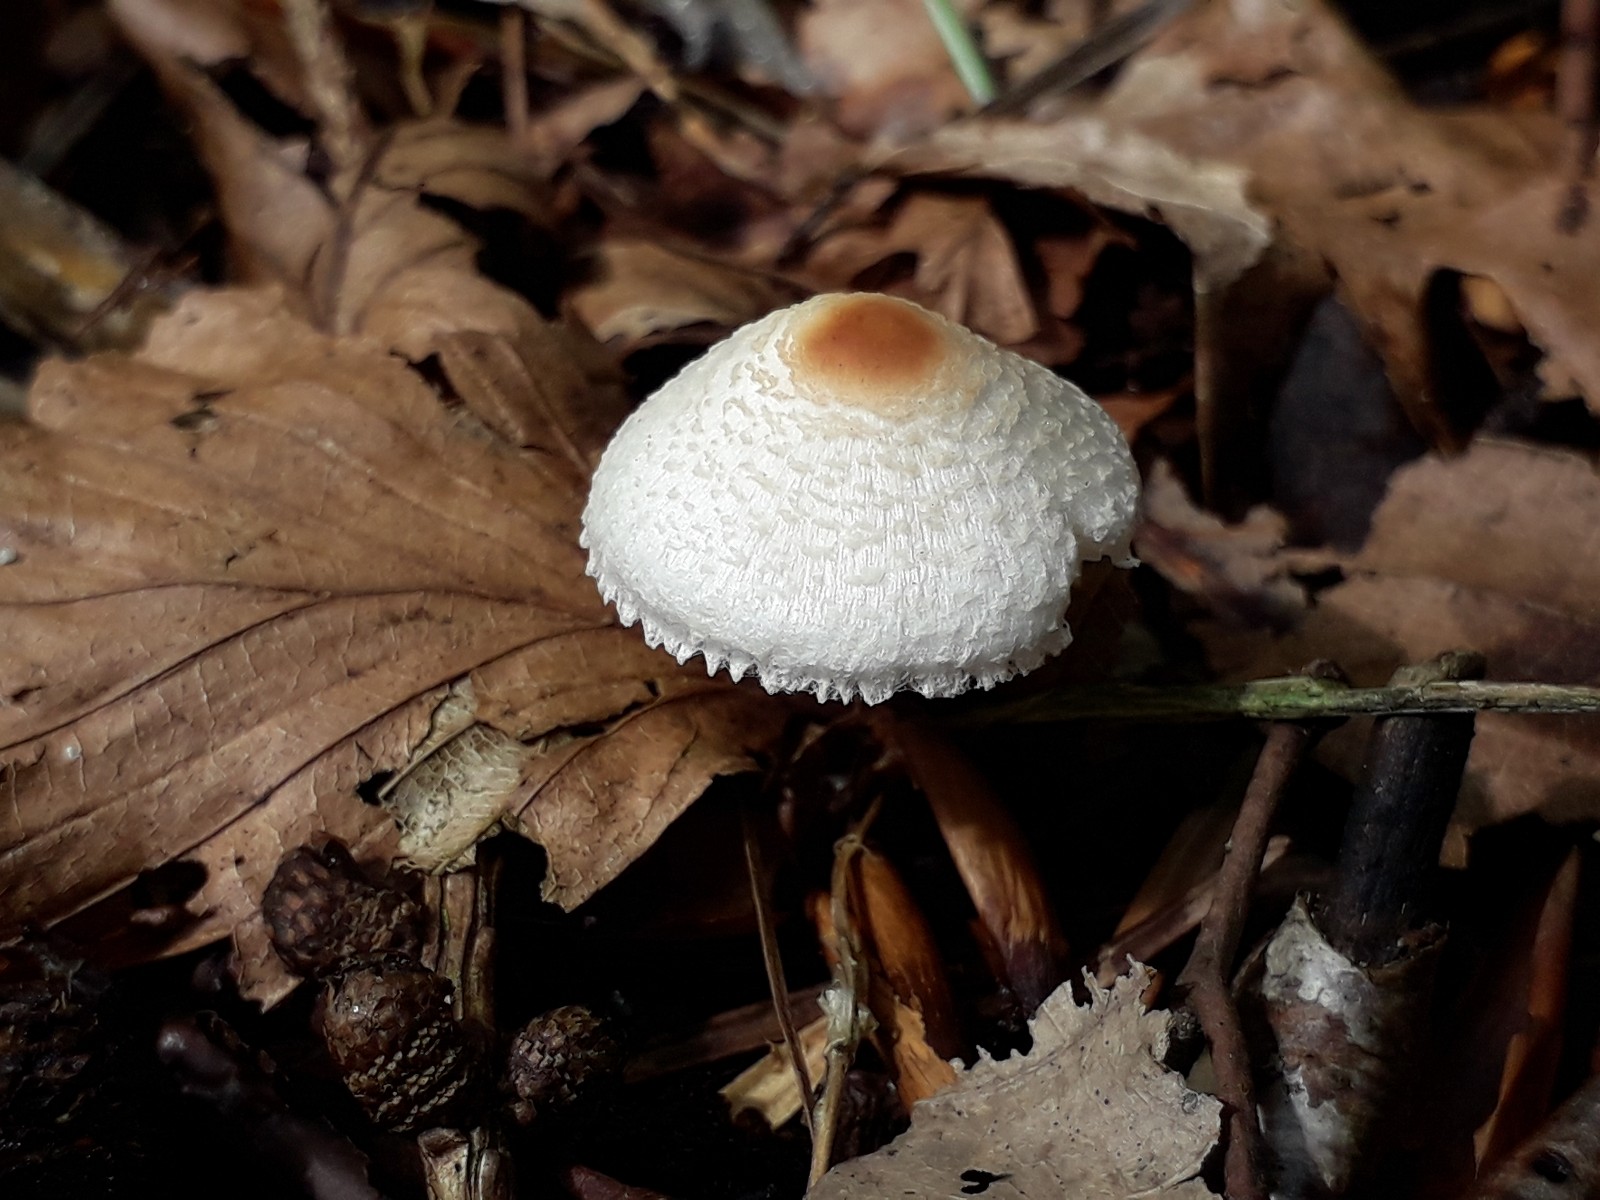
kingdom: Fungi
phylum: Basidiomycota
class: Agaricomycetes
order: Agaricales
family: Agaricaceae
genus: Lepiota
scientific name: Lepiota cristata
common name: stinkende parasolhat
